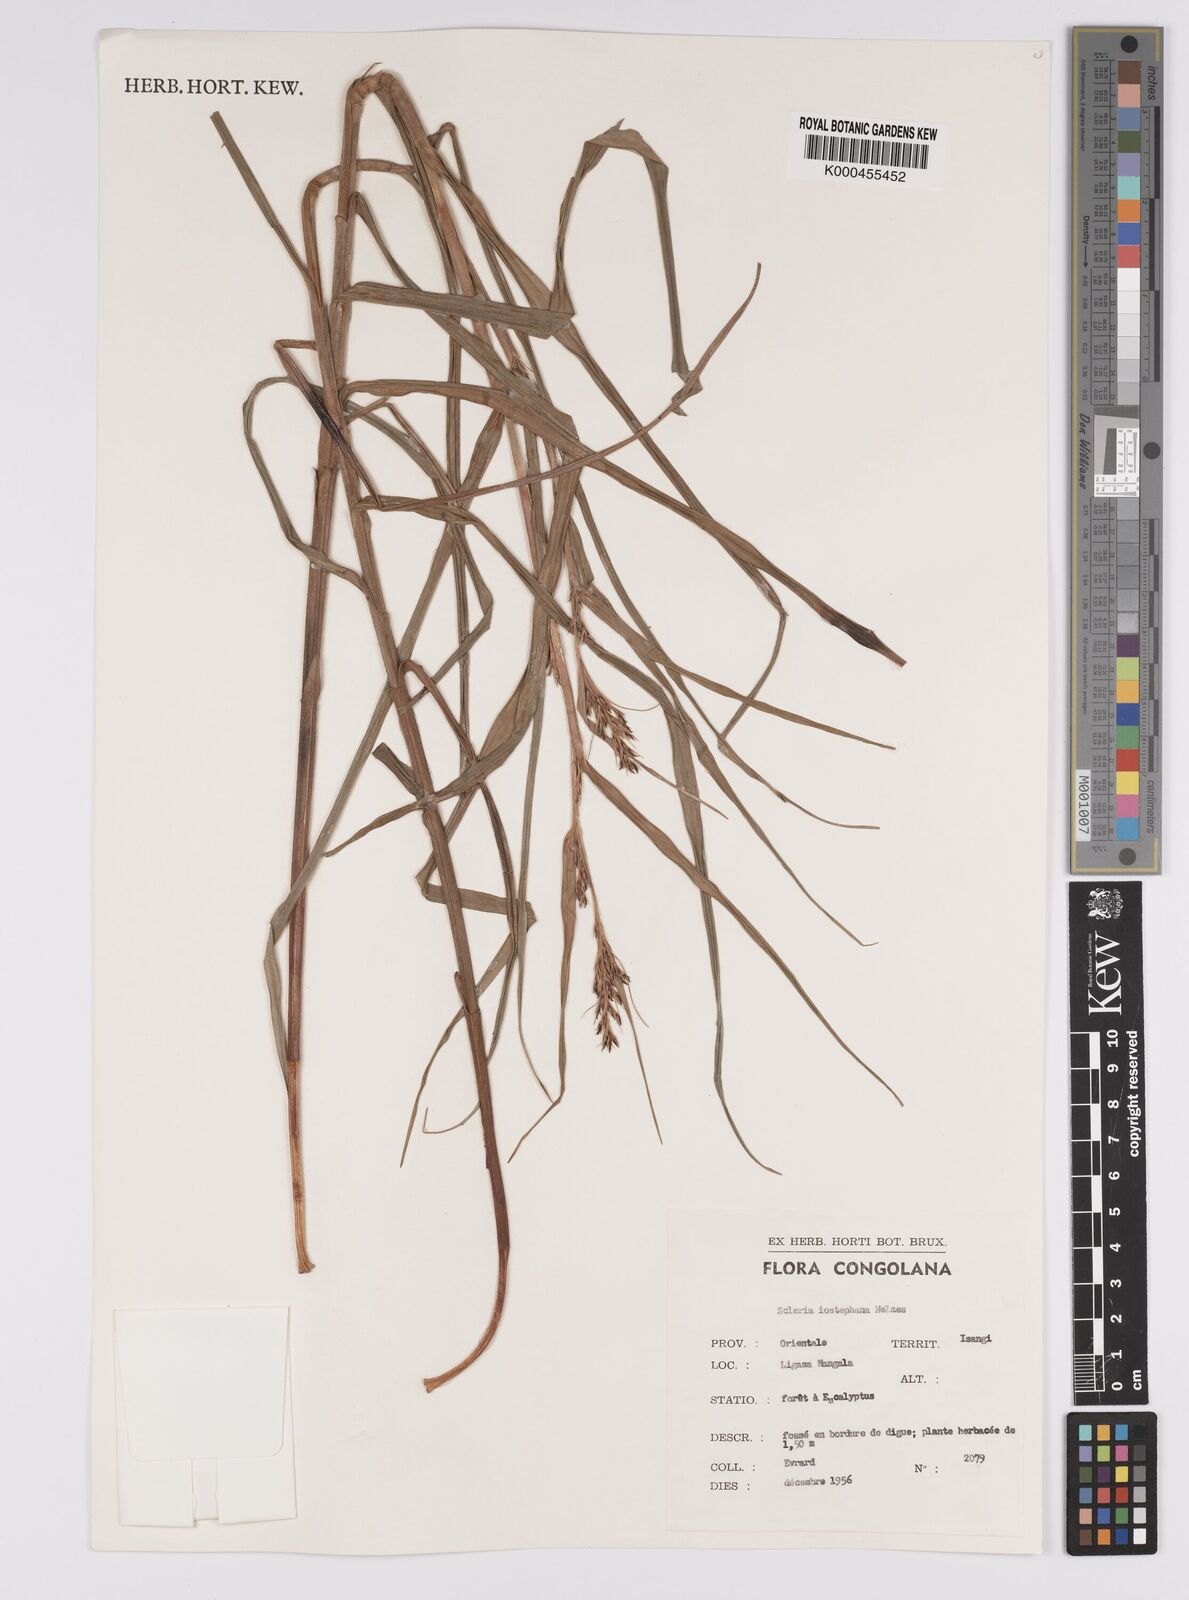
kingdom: Plantae
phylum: Tracheophyta
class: Liliopsida
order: Poales
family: Cyperaceae
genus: Scleria
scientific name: Scleria iostephana
